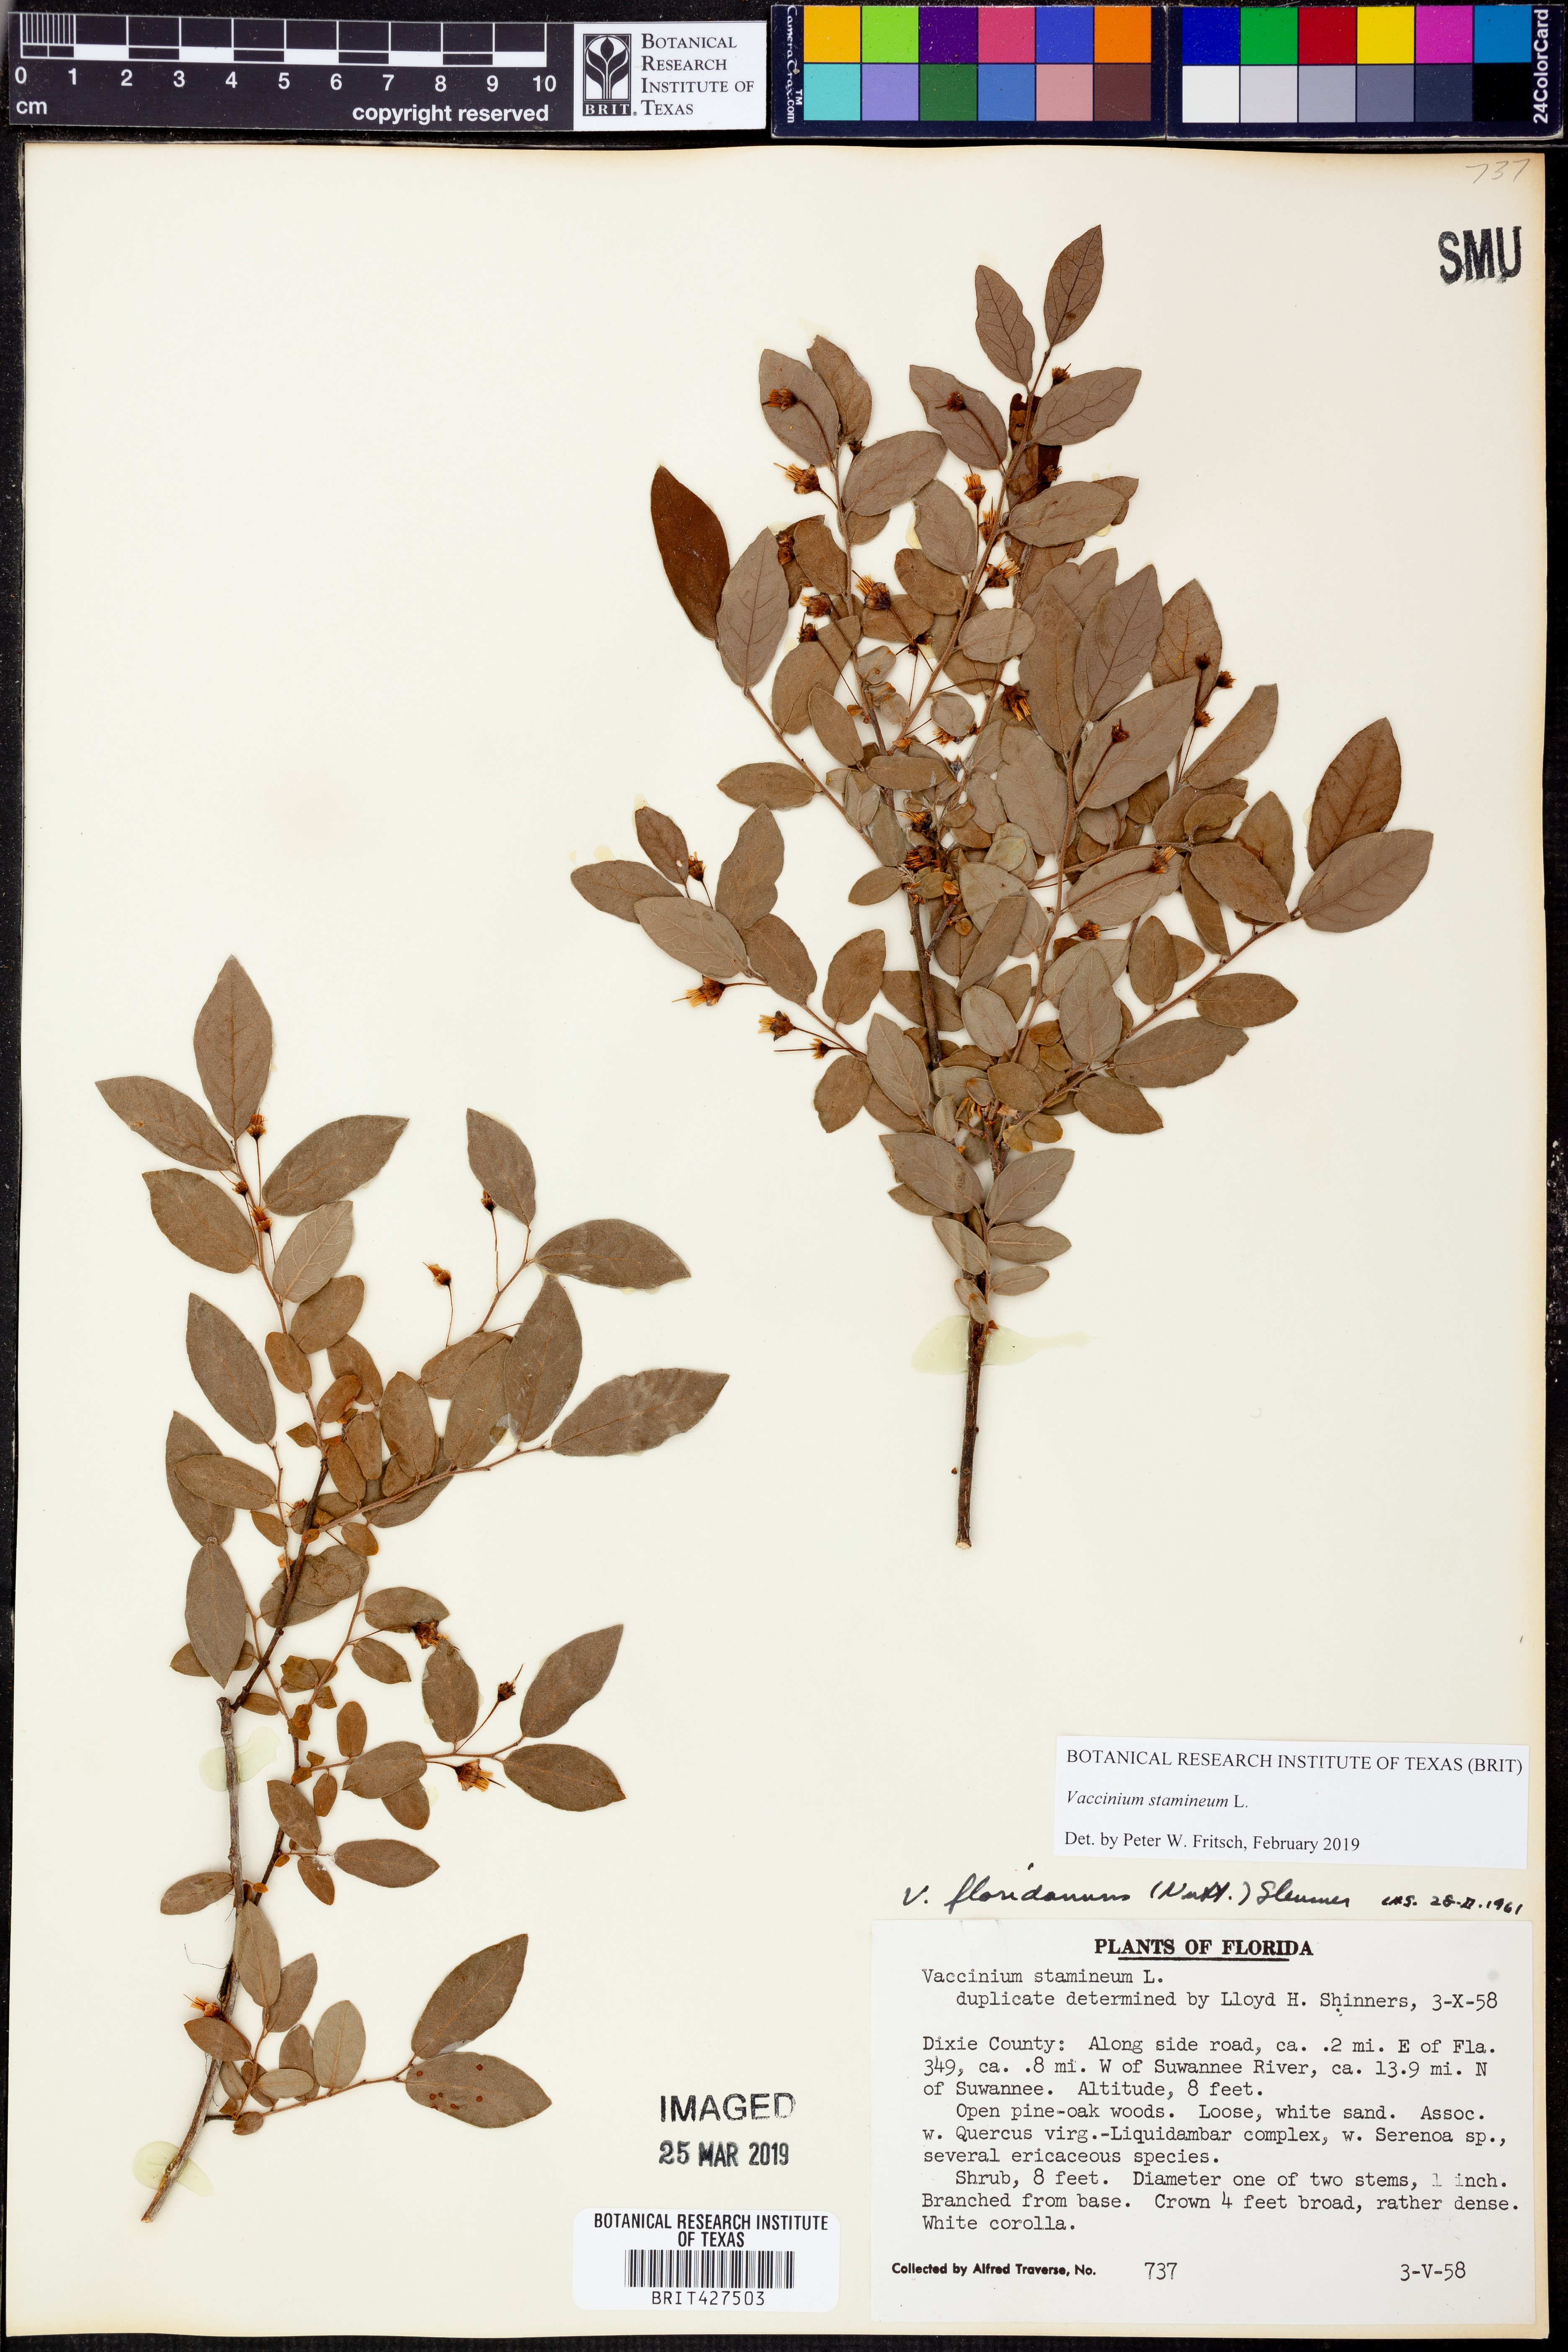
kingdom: Plantae
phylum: Tracheophyta
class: Magnoliopsida
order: Ericales
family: Ericaceae
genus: Vaccinium
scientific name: Vaccinium stamineum
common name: Deerberry
